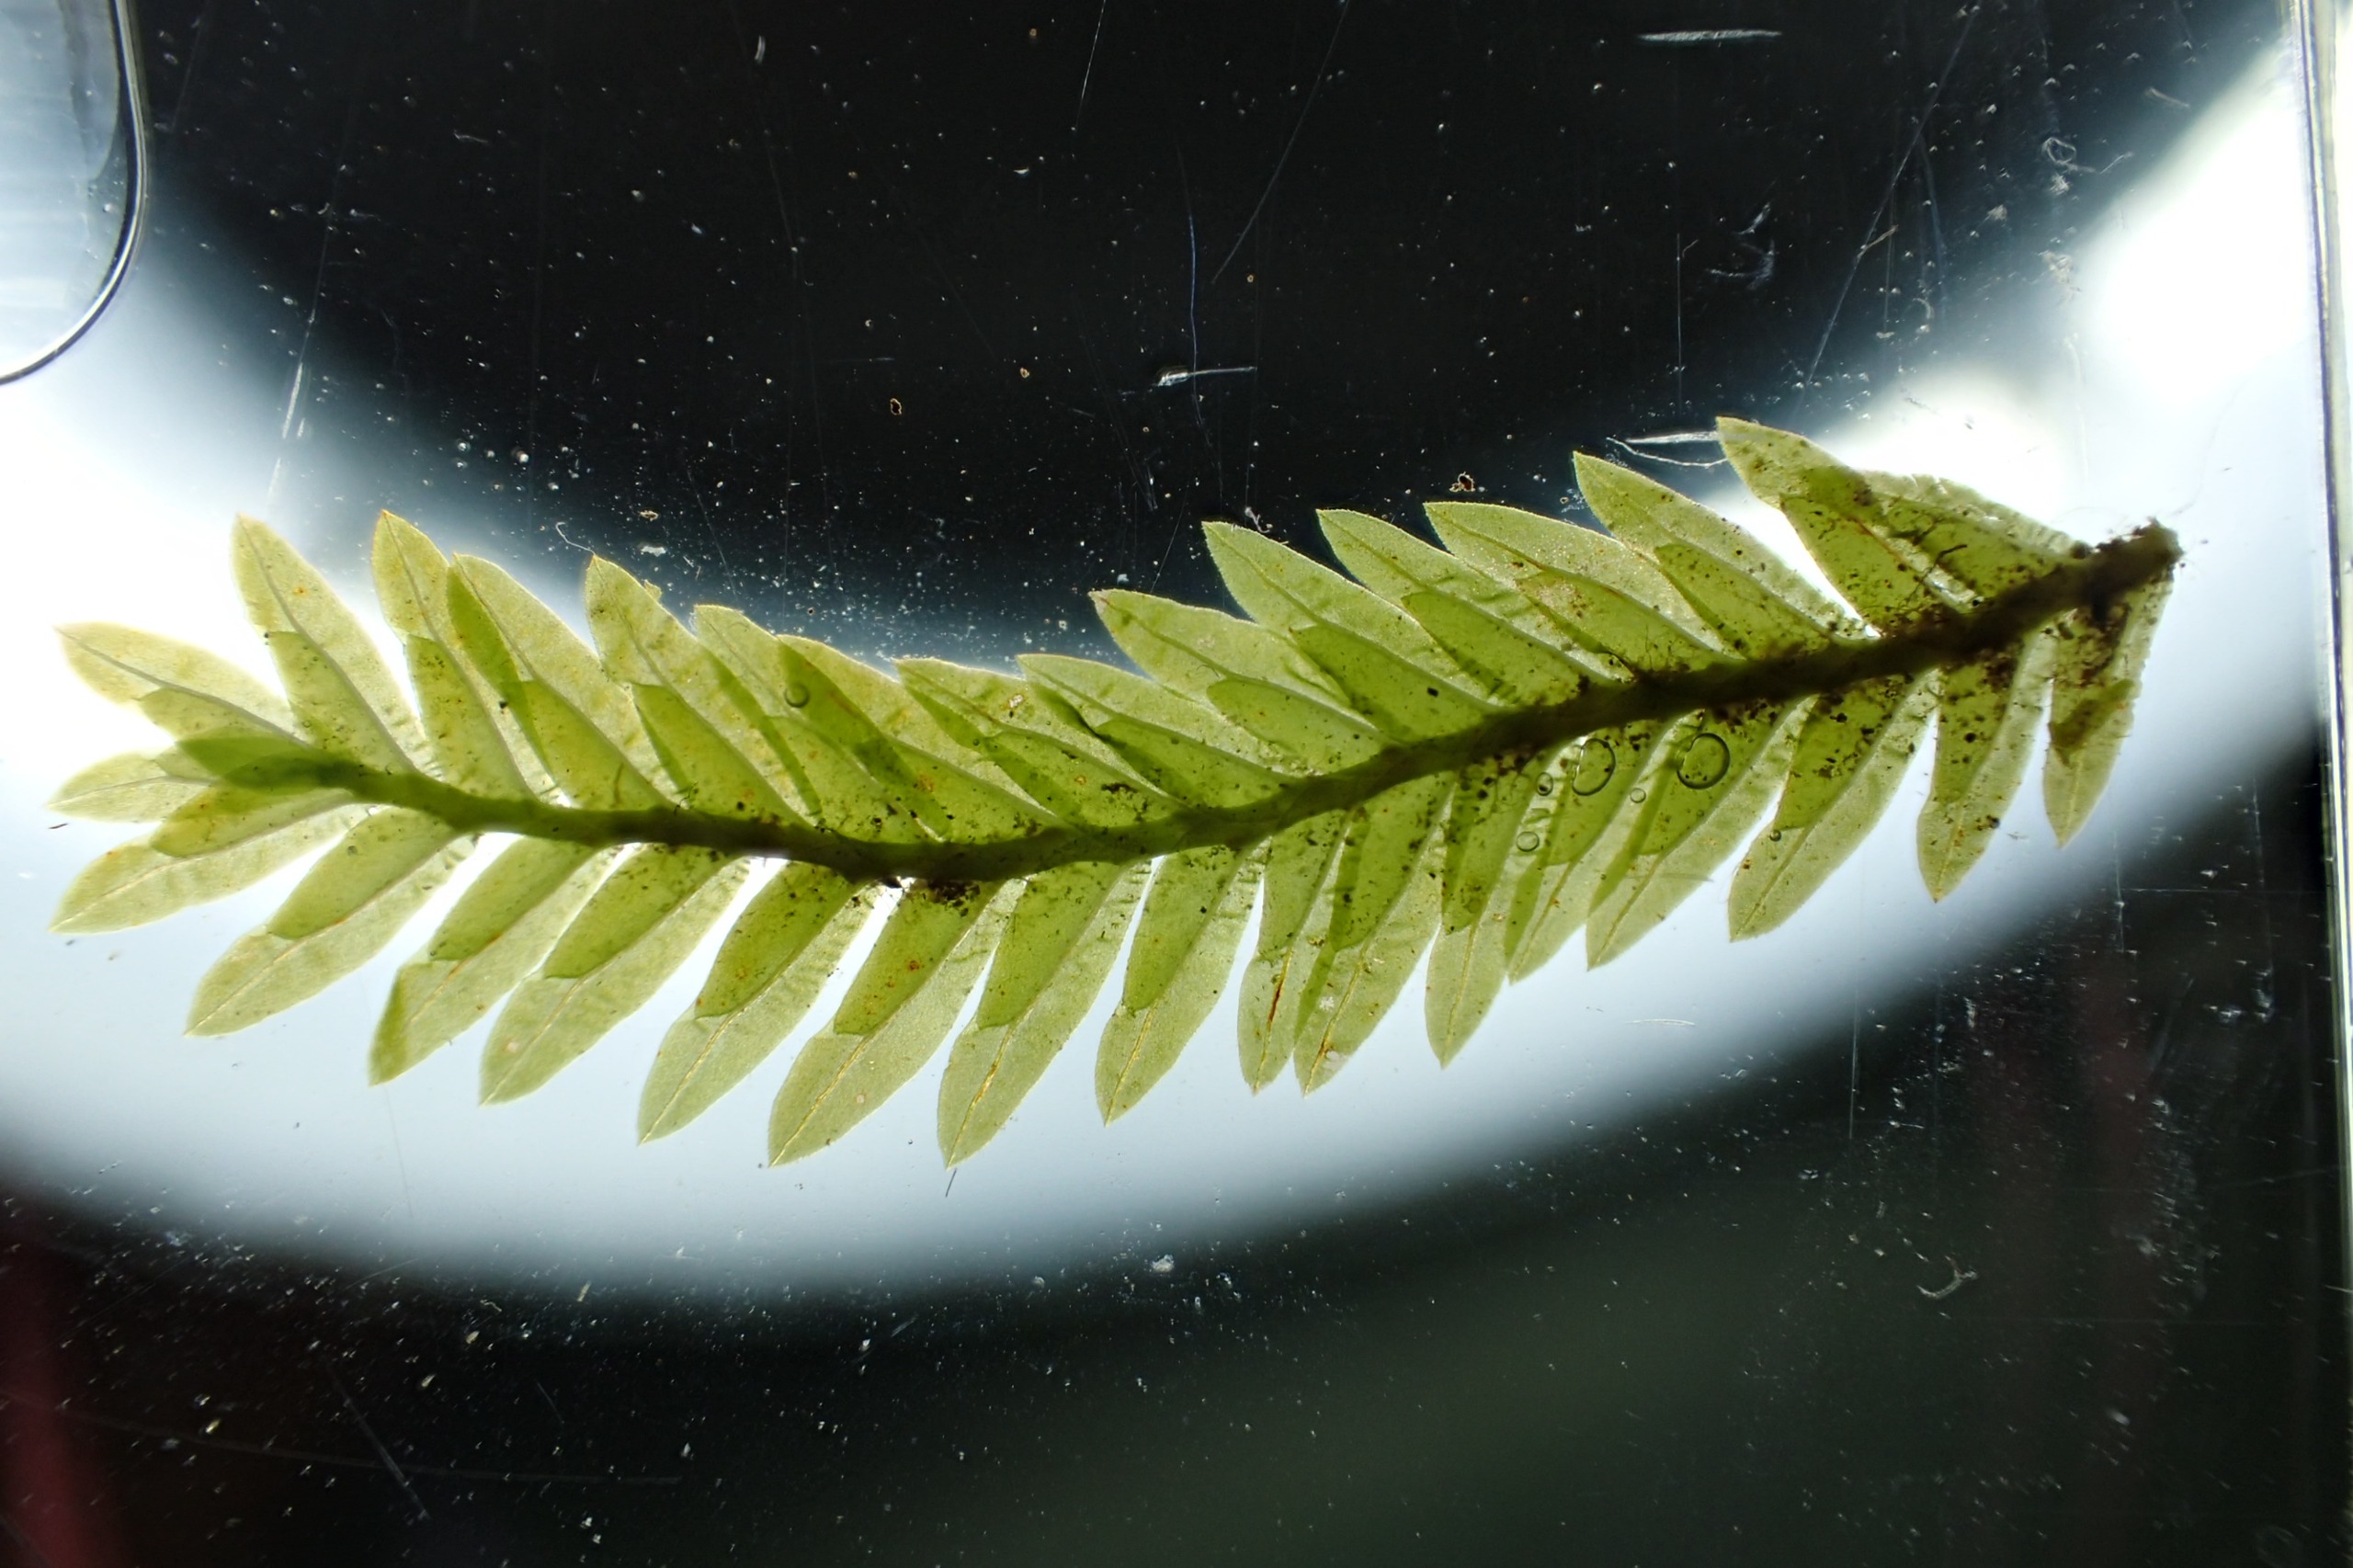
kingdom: Plantae
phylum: Bryophyta
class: Bryopsida
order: Dicranales
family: Fissidentaceae
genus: Fissidens
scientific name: Fissidens adianthoides
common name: Kær-rademos
